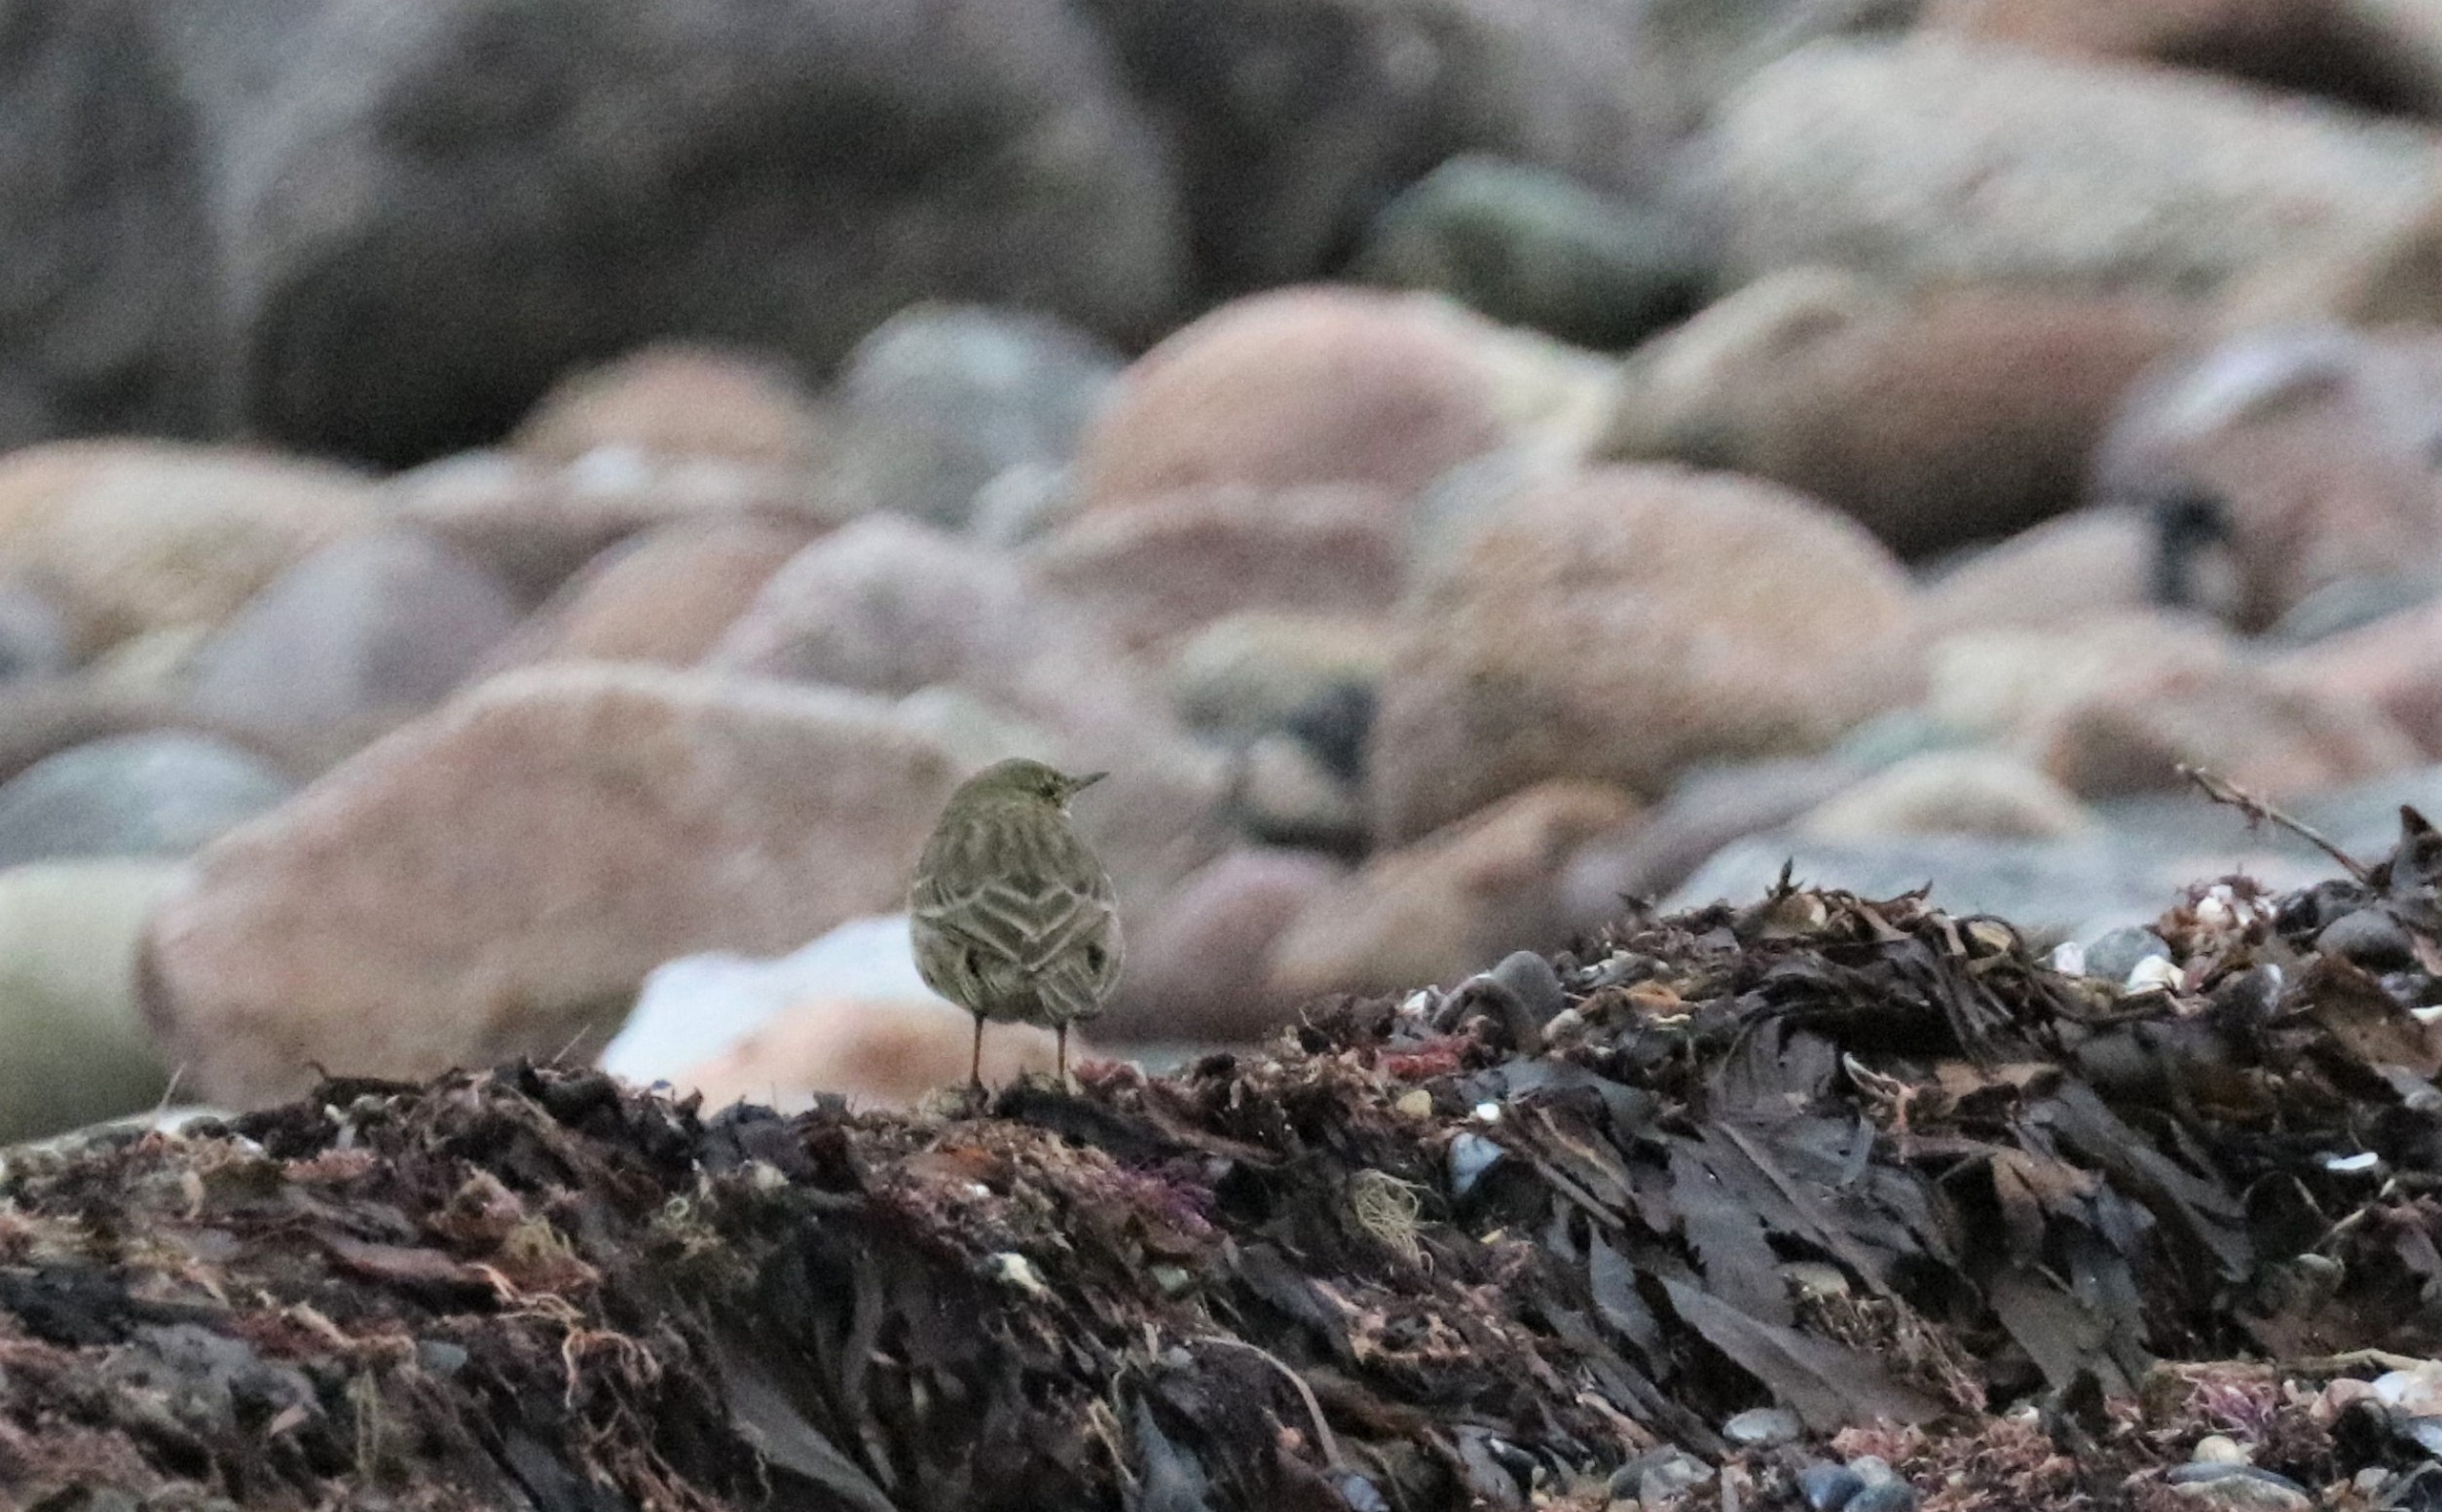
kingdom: Animalia
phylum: Chordata
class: Aves
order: Passeriformes
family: Motacillidae
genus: Anthus
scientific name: Anthus petrosus
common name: Skærpiber
